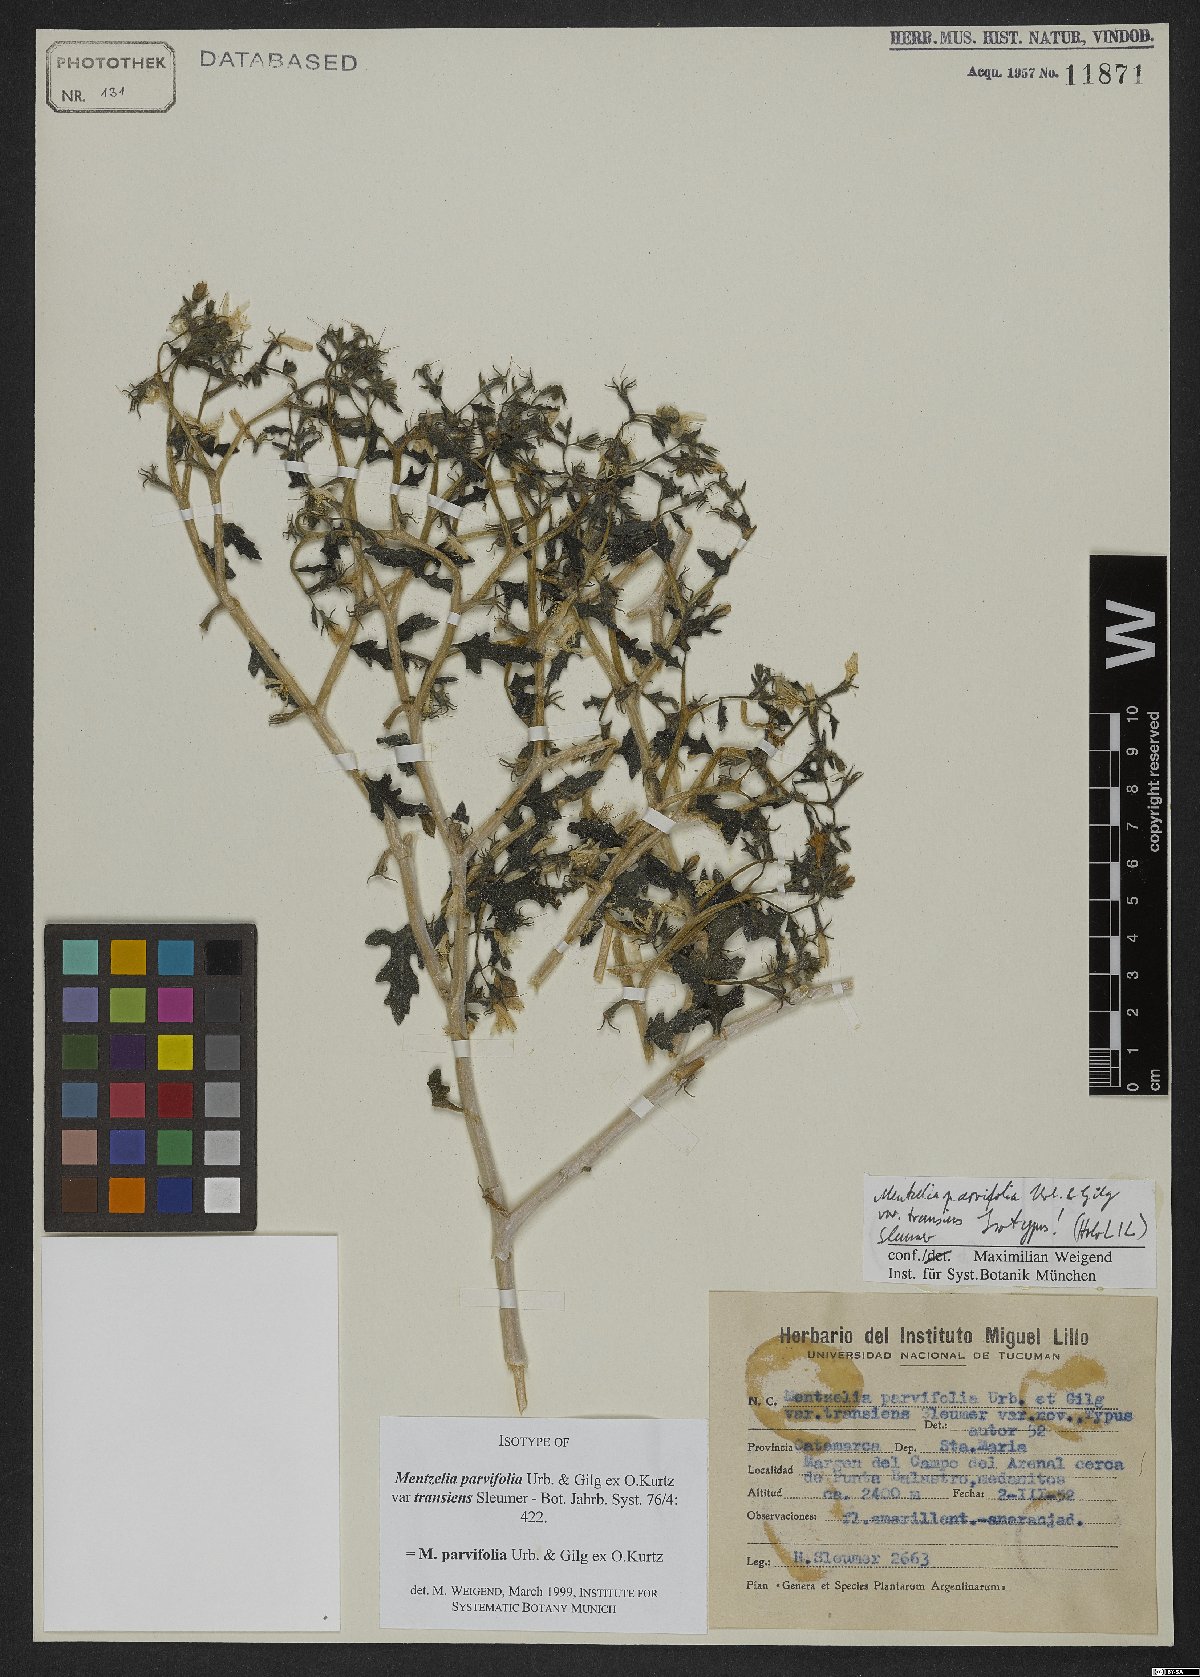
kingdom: Plantae
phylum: Tracheophyta
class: Magnoliopsida
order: Cornales
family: Loasaceae
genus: Mentzelia
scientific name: Mentzelia parvifolia
